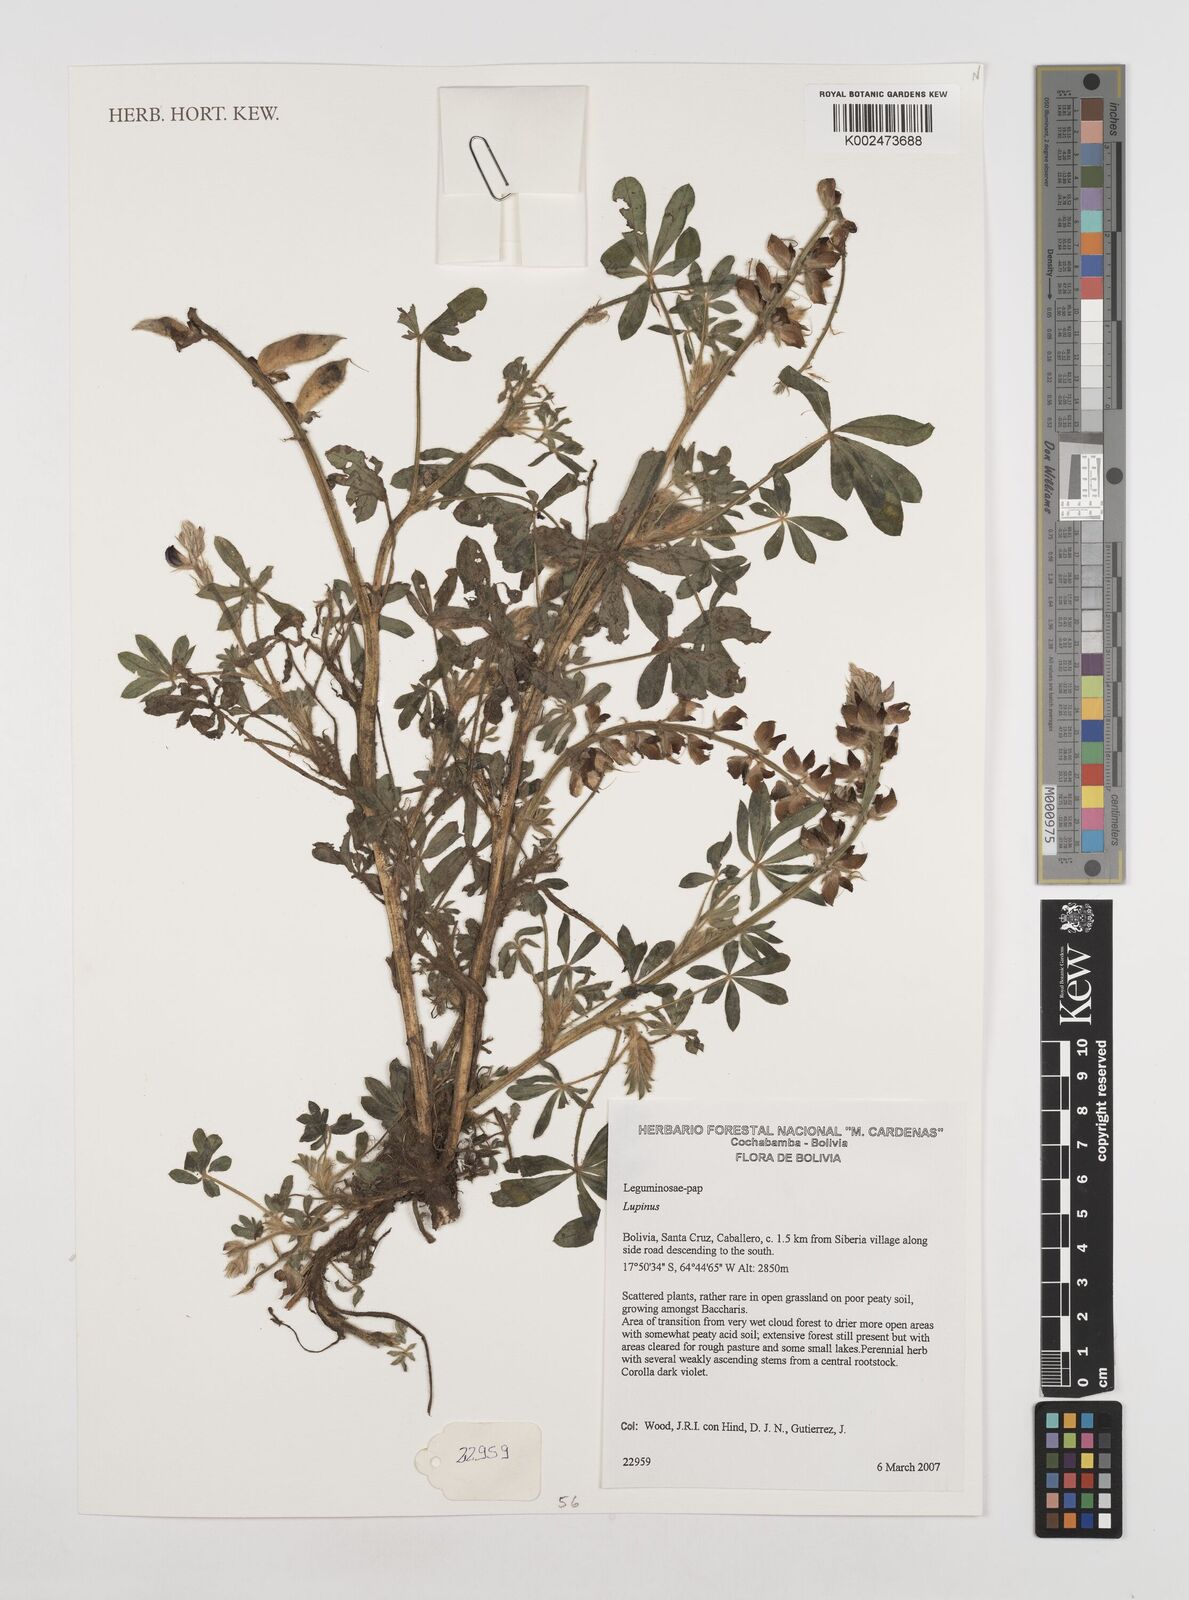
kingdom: Plantae
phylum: Tracheophyta
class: Magnoliopsida
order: Fabales
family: Fabaceae
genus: Lupinus
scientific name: Lupinus
